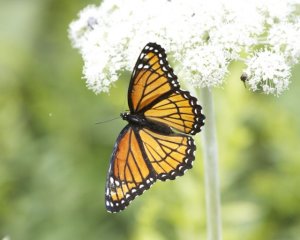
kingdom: Animalia
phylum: Arthropoda
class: Insecta
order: Lepidoptera
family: Nymphalidae
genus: Limenitis
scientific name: Limenitis archippus
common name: Viceroy
